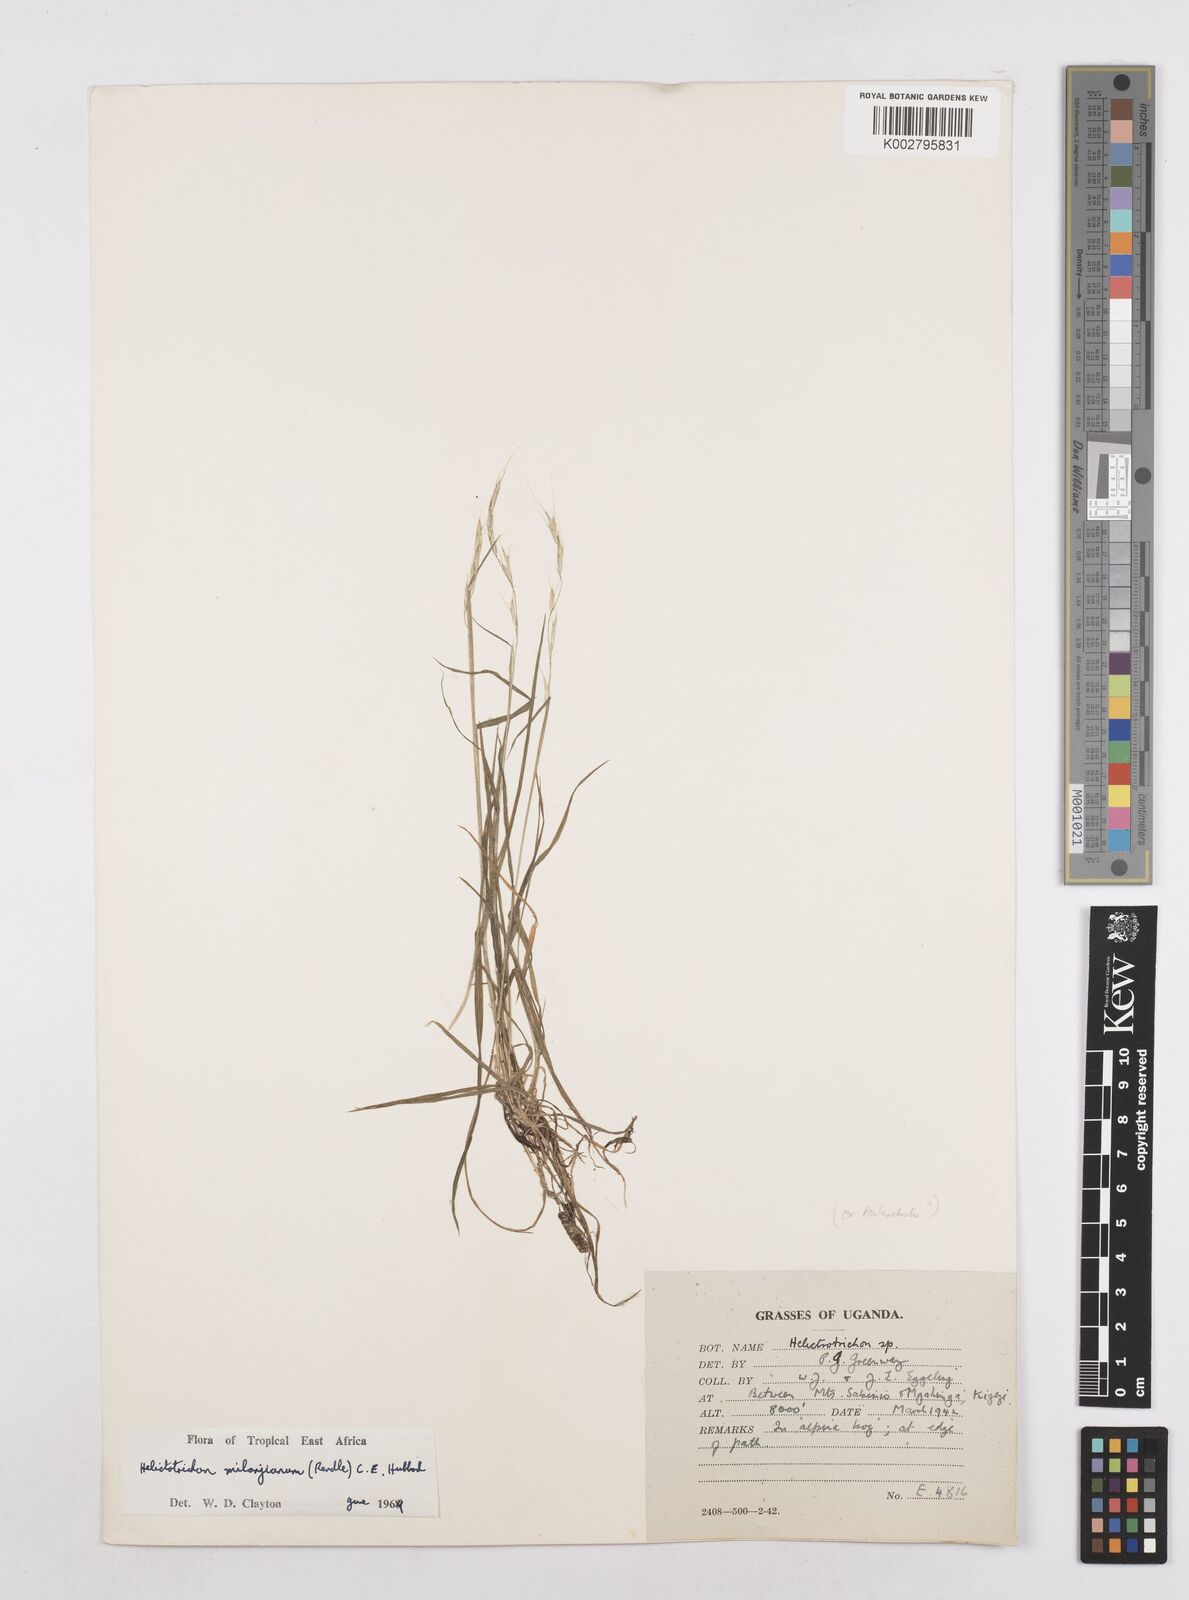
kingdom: Plantae
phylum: Tracheophyta
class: Liliopsida
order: Poales
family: Poaceae
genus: Trisetopsis
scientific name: Trisetopsis milanjiana
